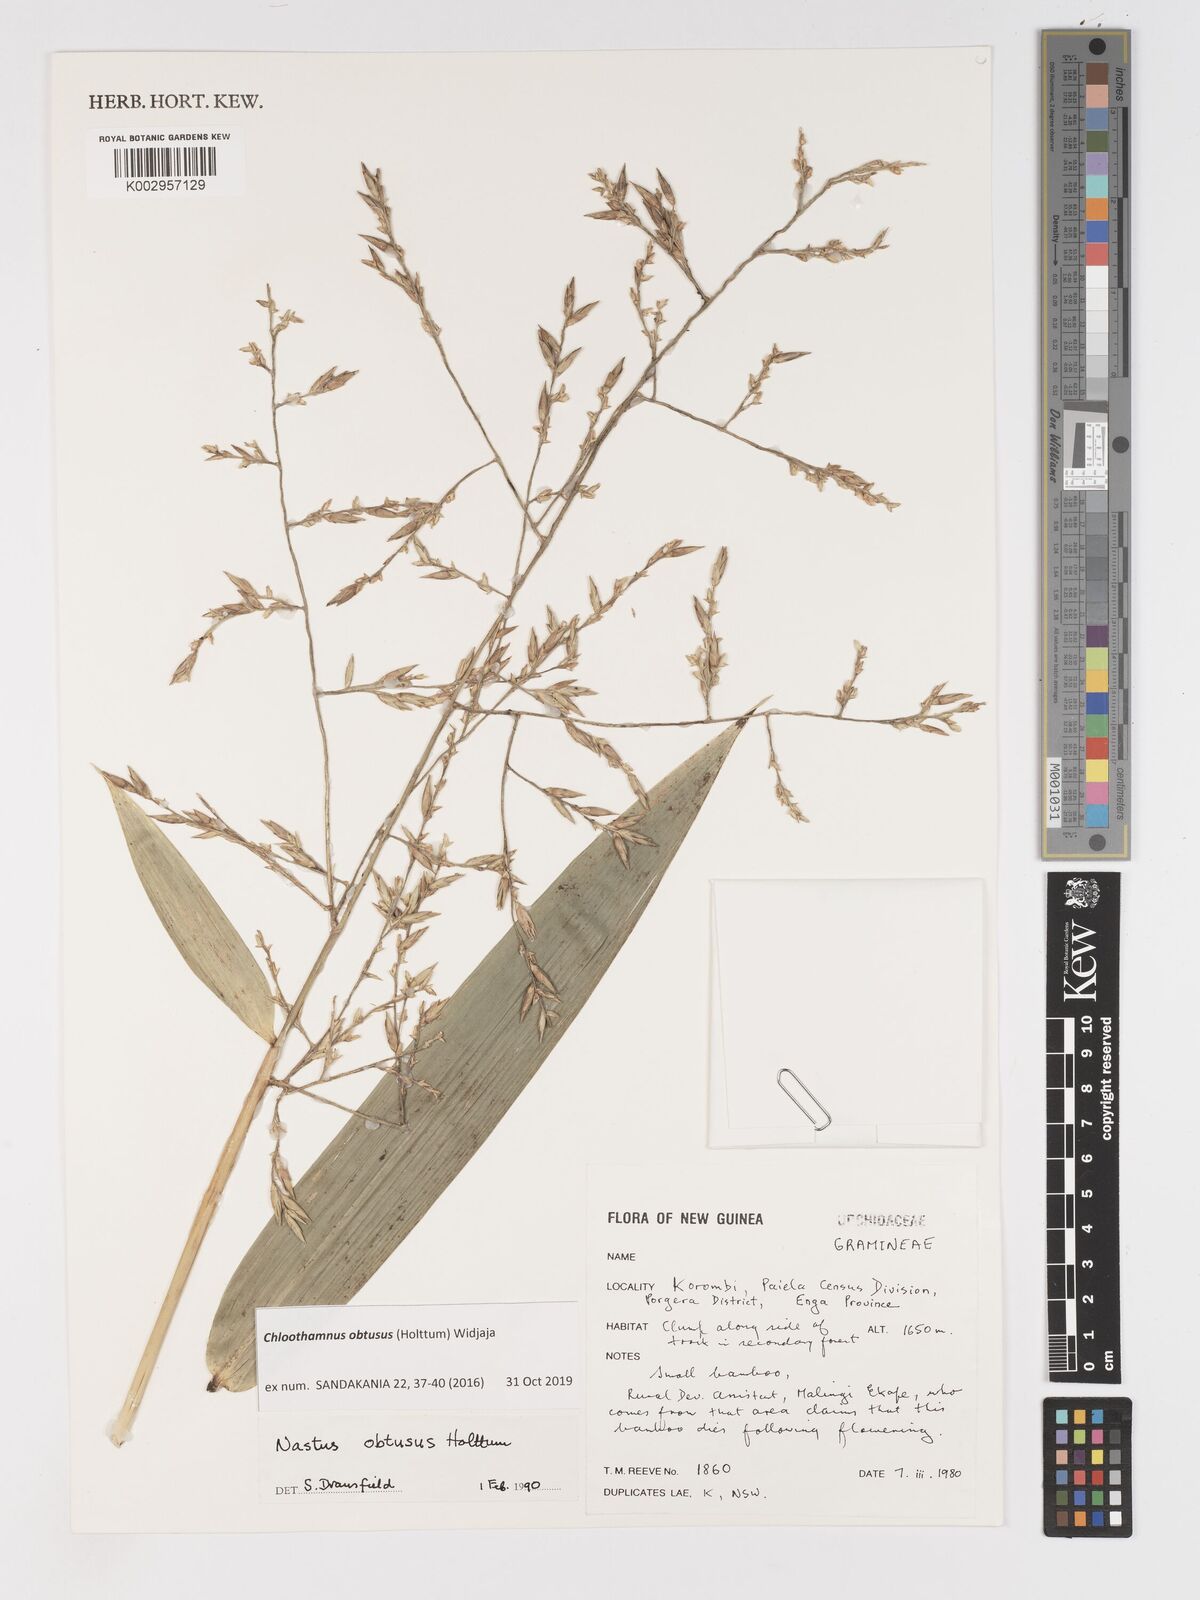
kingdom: Plantae
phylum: Tracheophyta
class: Liliopsida
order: Poales
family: Poaceae
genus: Chloothamnus
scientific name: Chloothamnus obtusus
